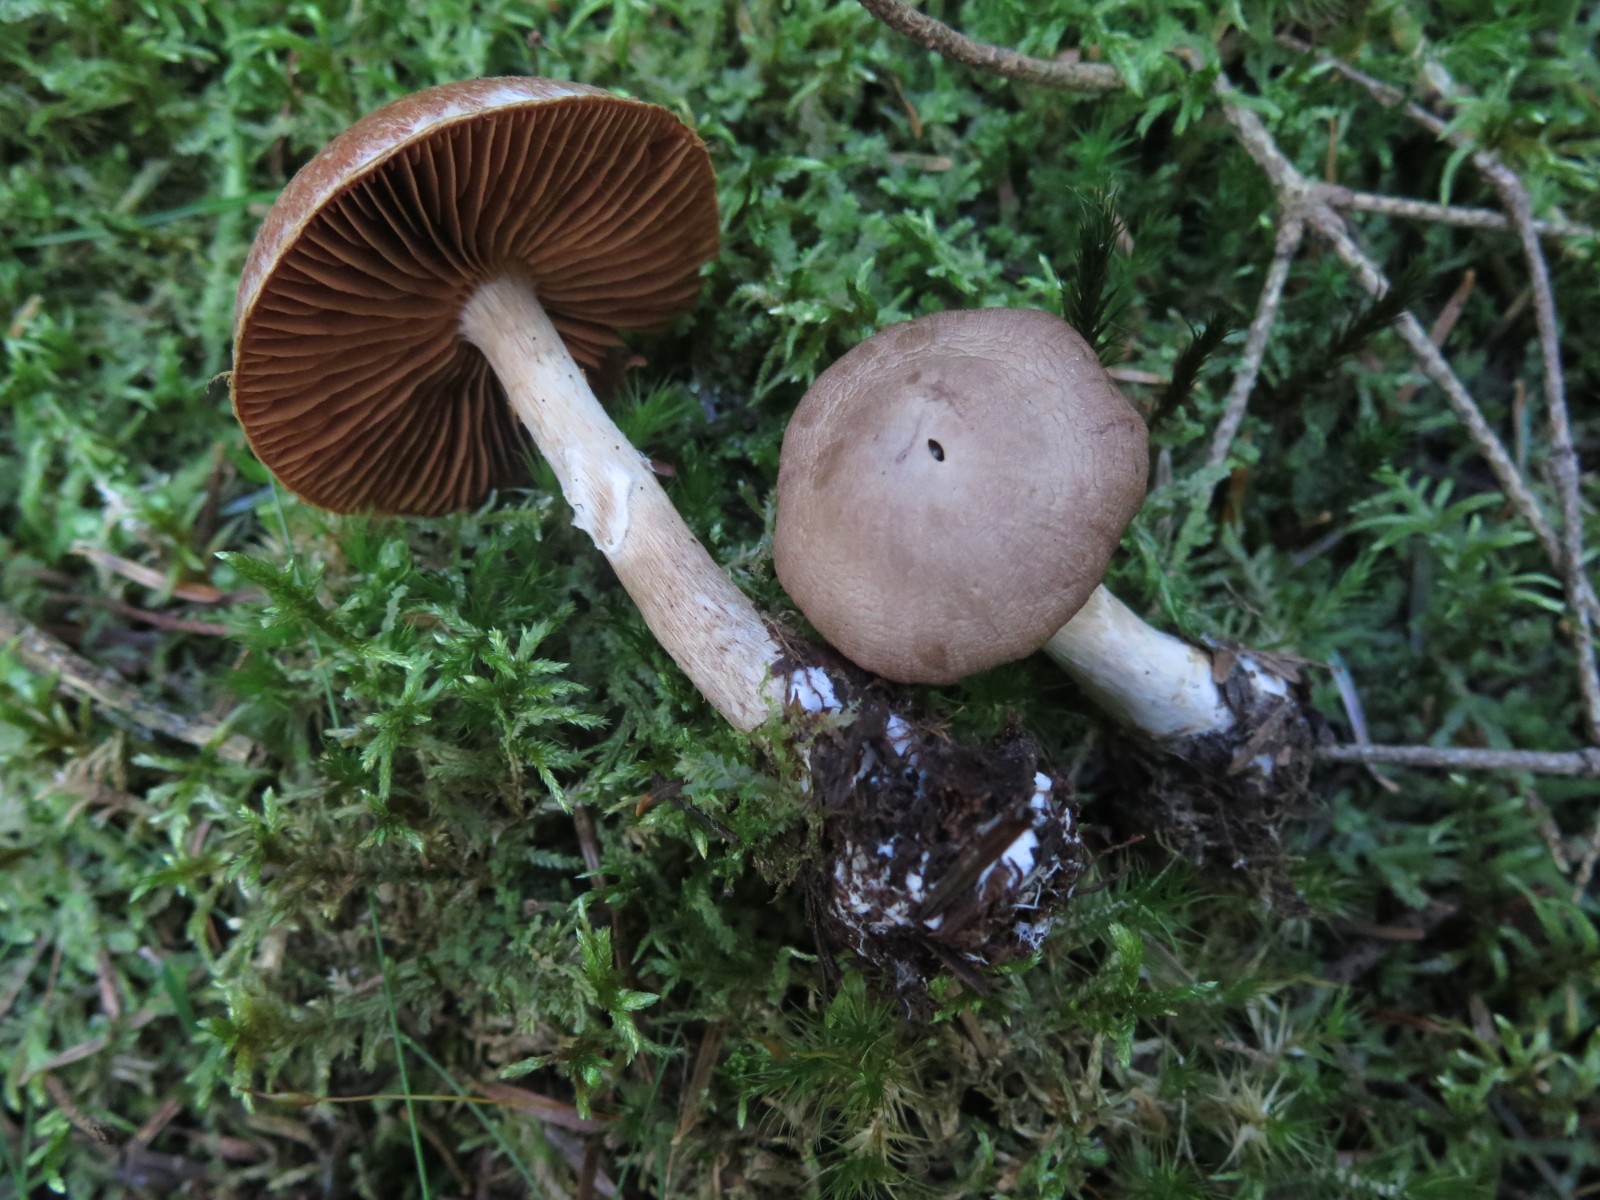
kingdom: Fungi
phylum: Basidiomycota
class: Agaricomycetes
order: Agaricales
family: Cortinariaceae
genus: Cortinarius
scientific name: Cortinarius
